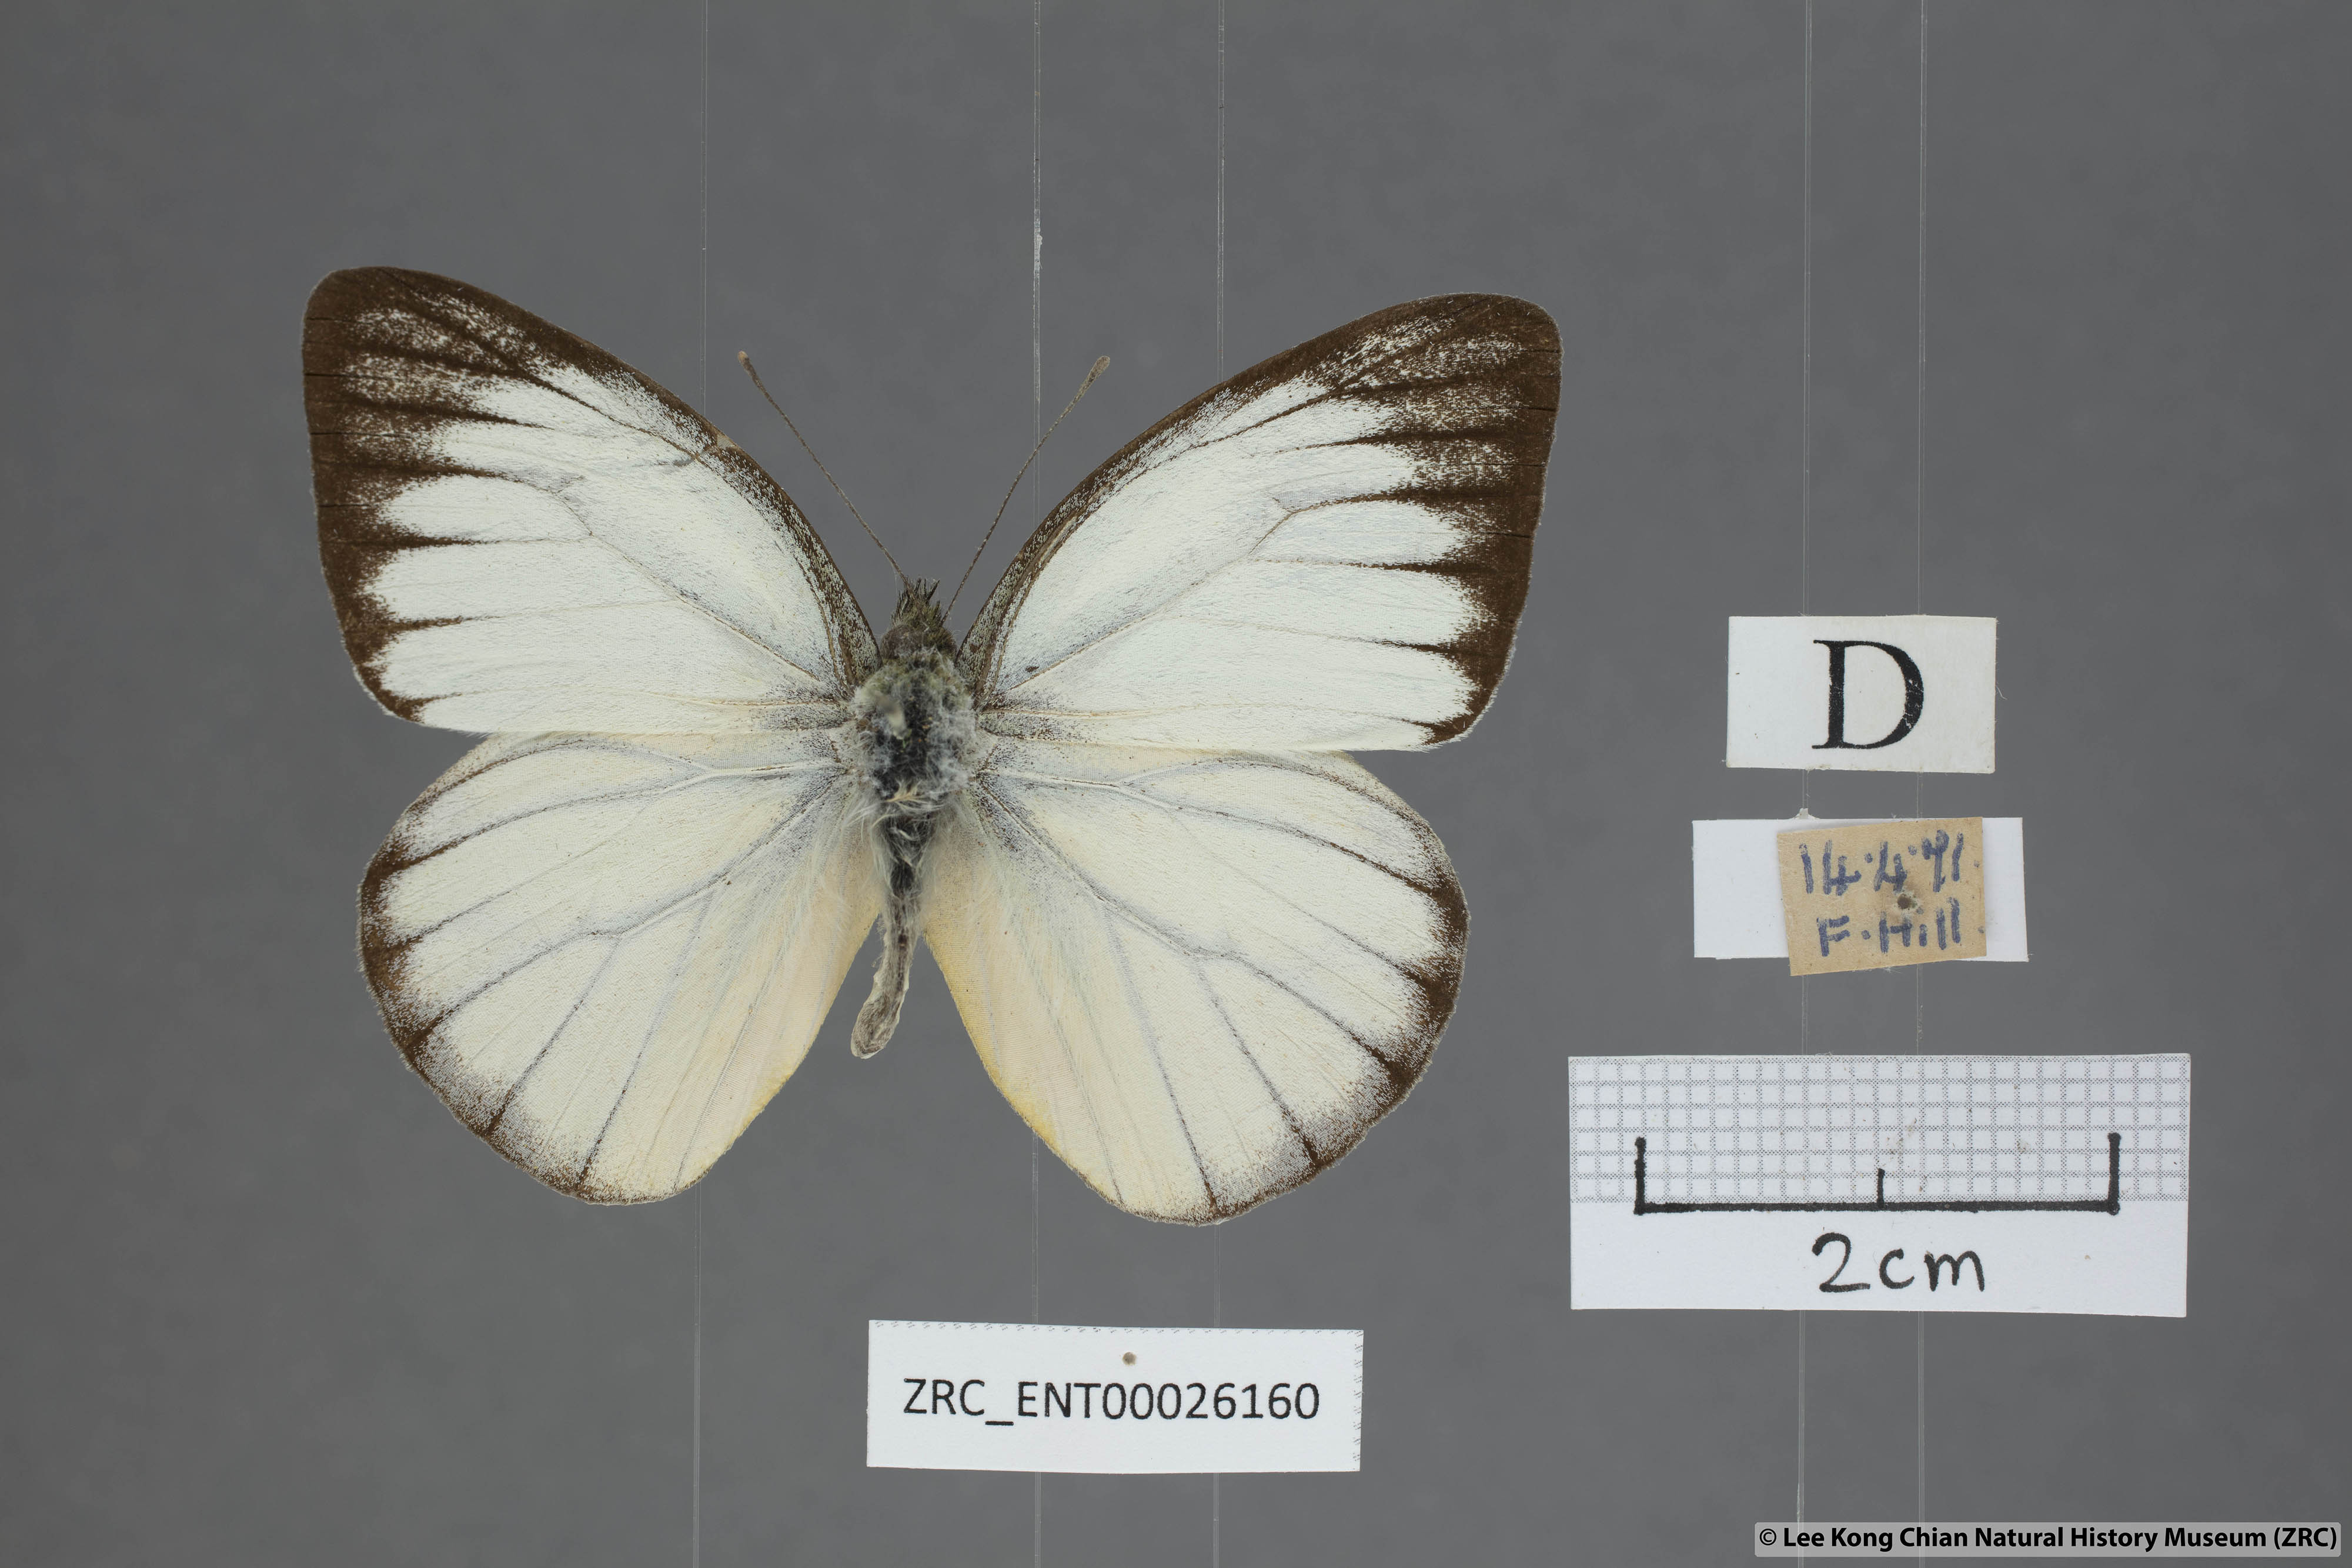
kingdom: Animalia
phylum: Arthropoda
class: Insecta
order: Lepidoptera
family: Pieridae
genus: Cepora
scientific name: Cepora nadina
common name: Lesser gull
